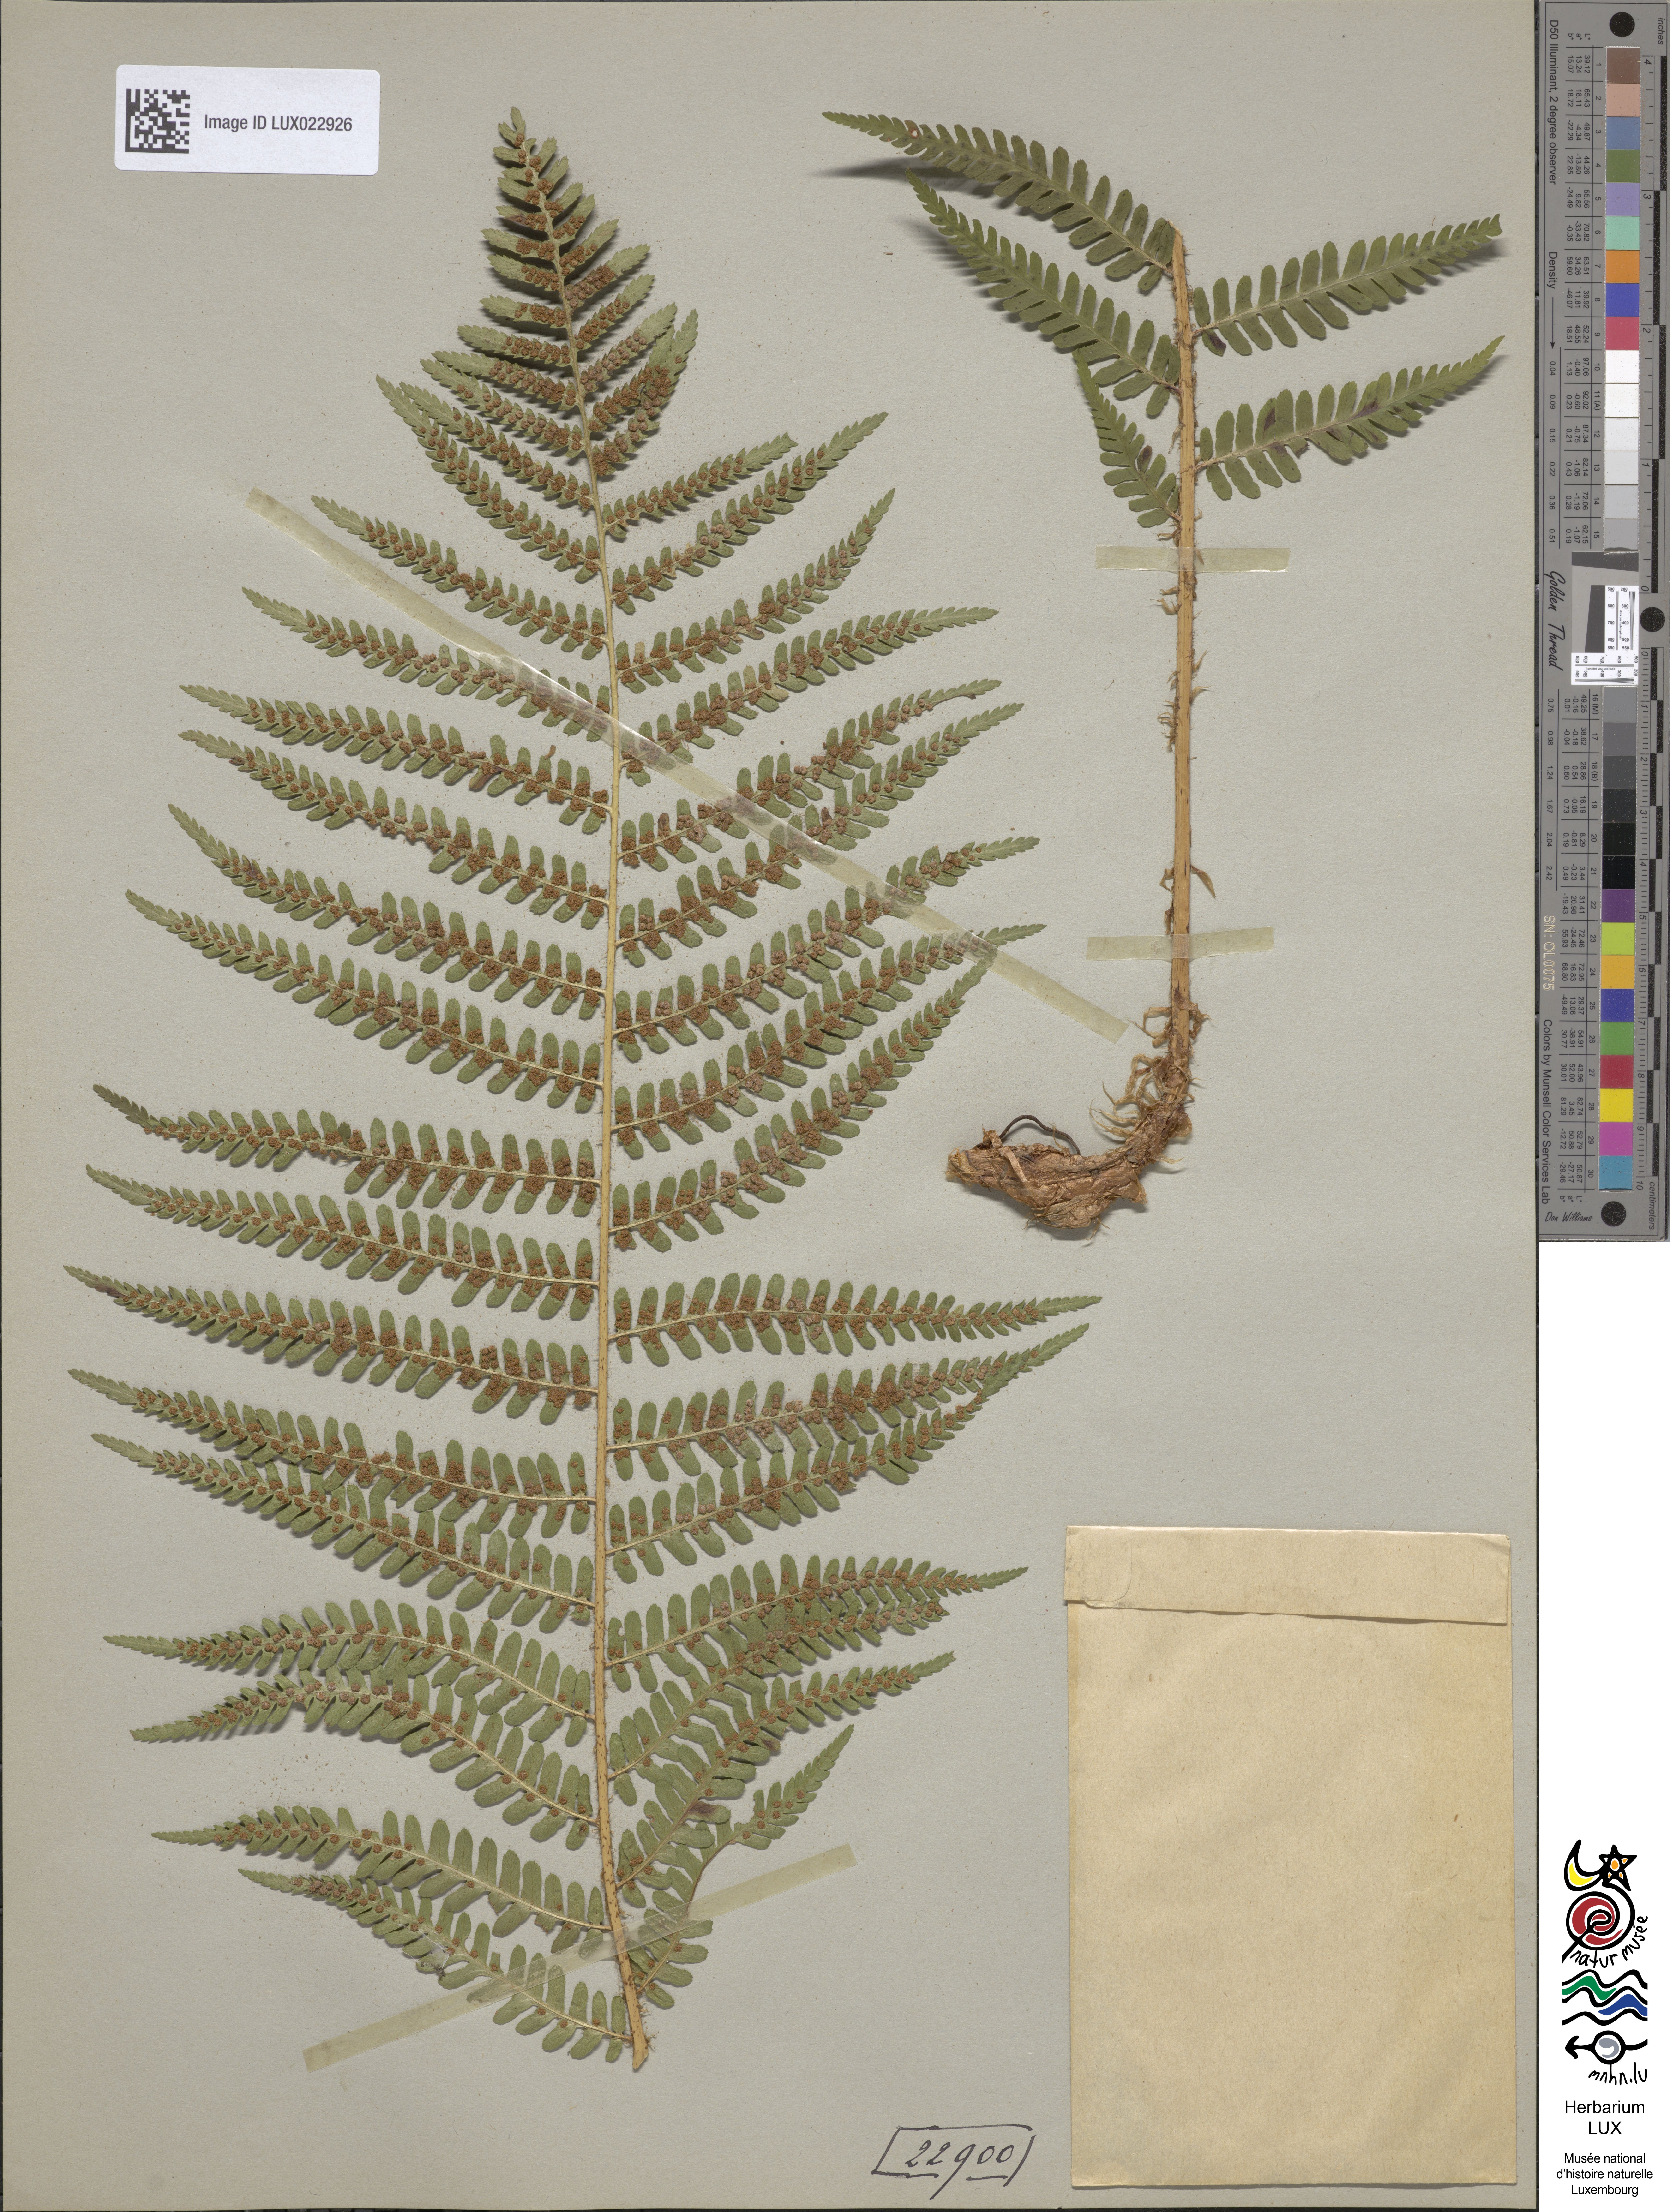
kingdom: Plantae
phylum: Tracheophyta
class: Polypodiopsida
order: Polypodiales
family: Dryopteridaceae
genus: Dryopteris
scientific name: Dryopteris filix-mas
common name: Male fern
